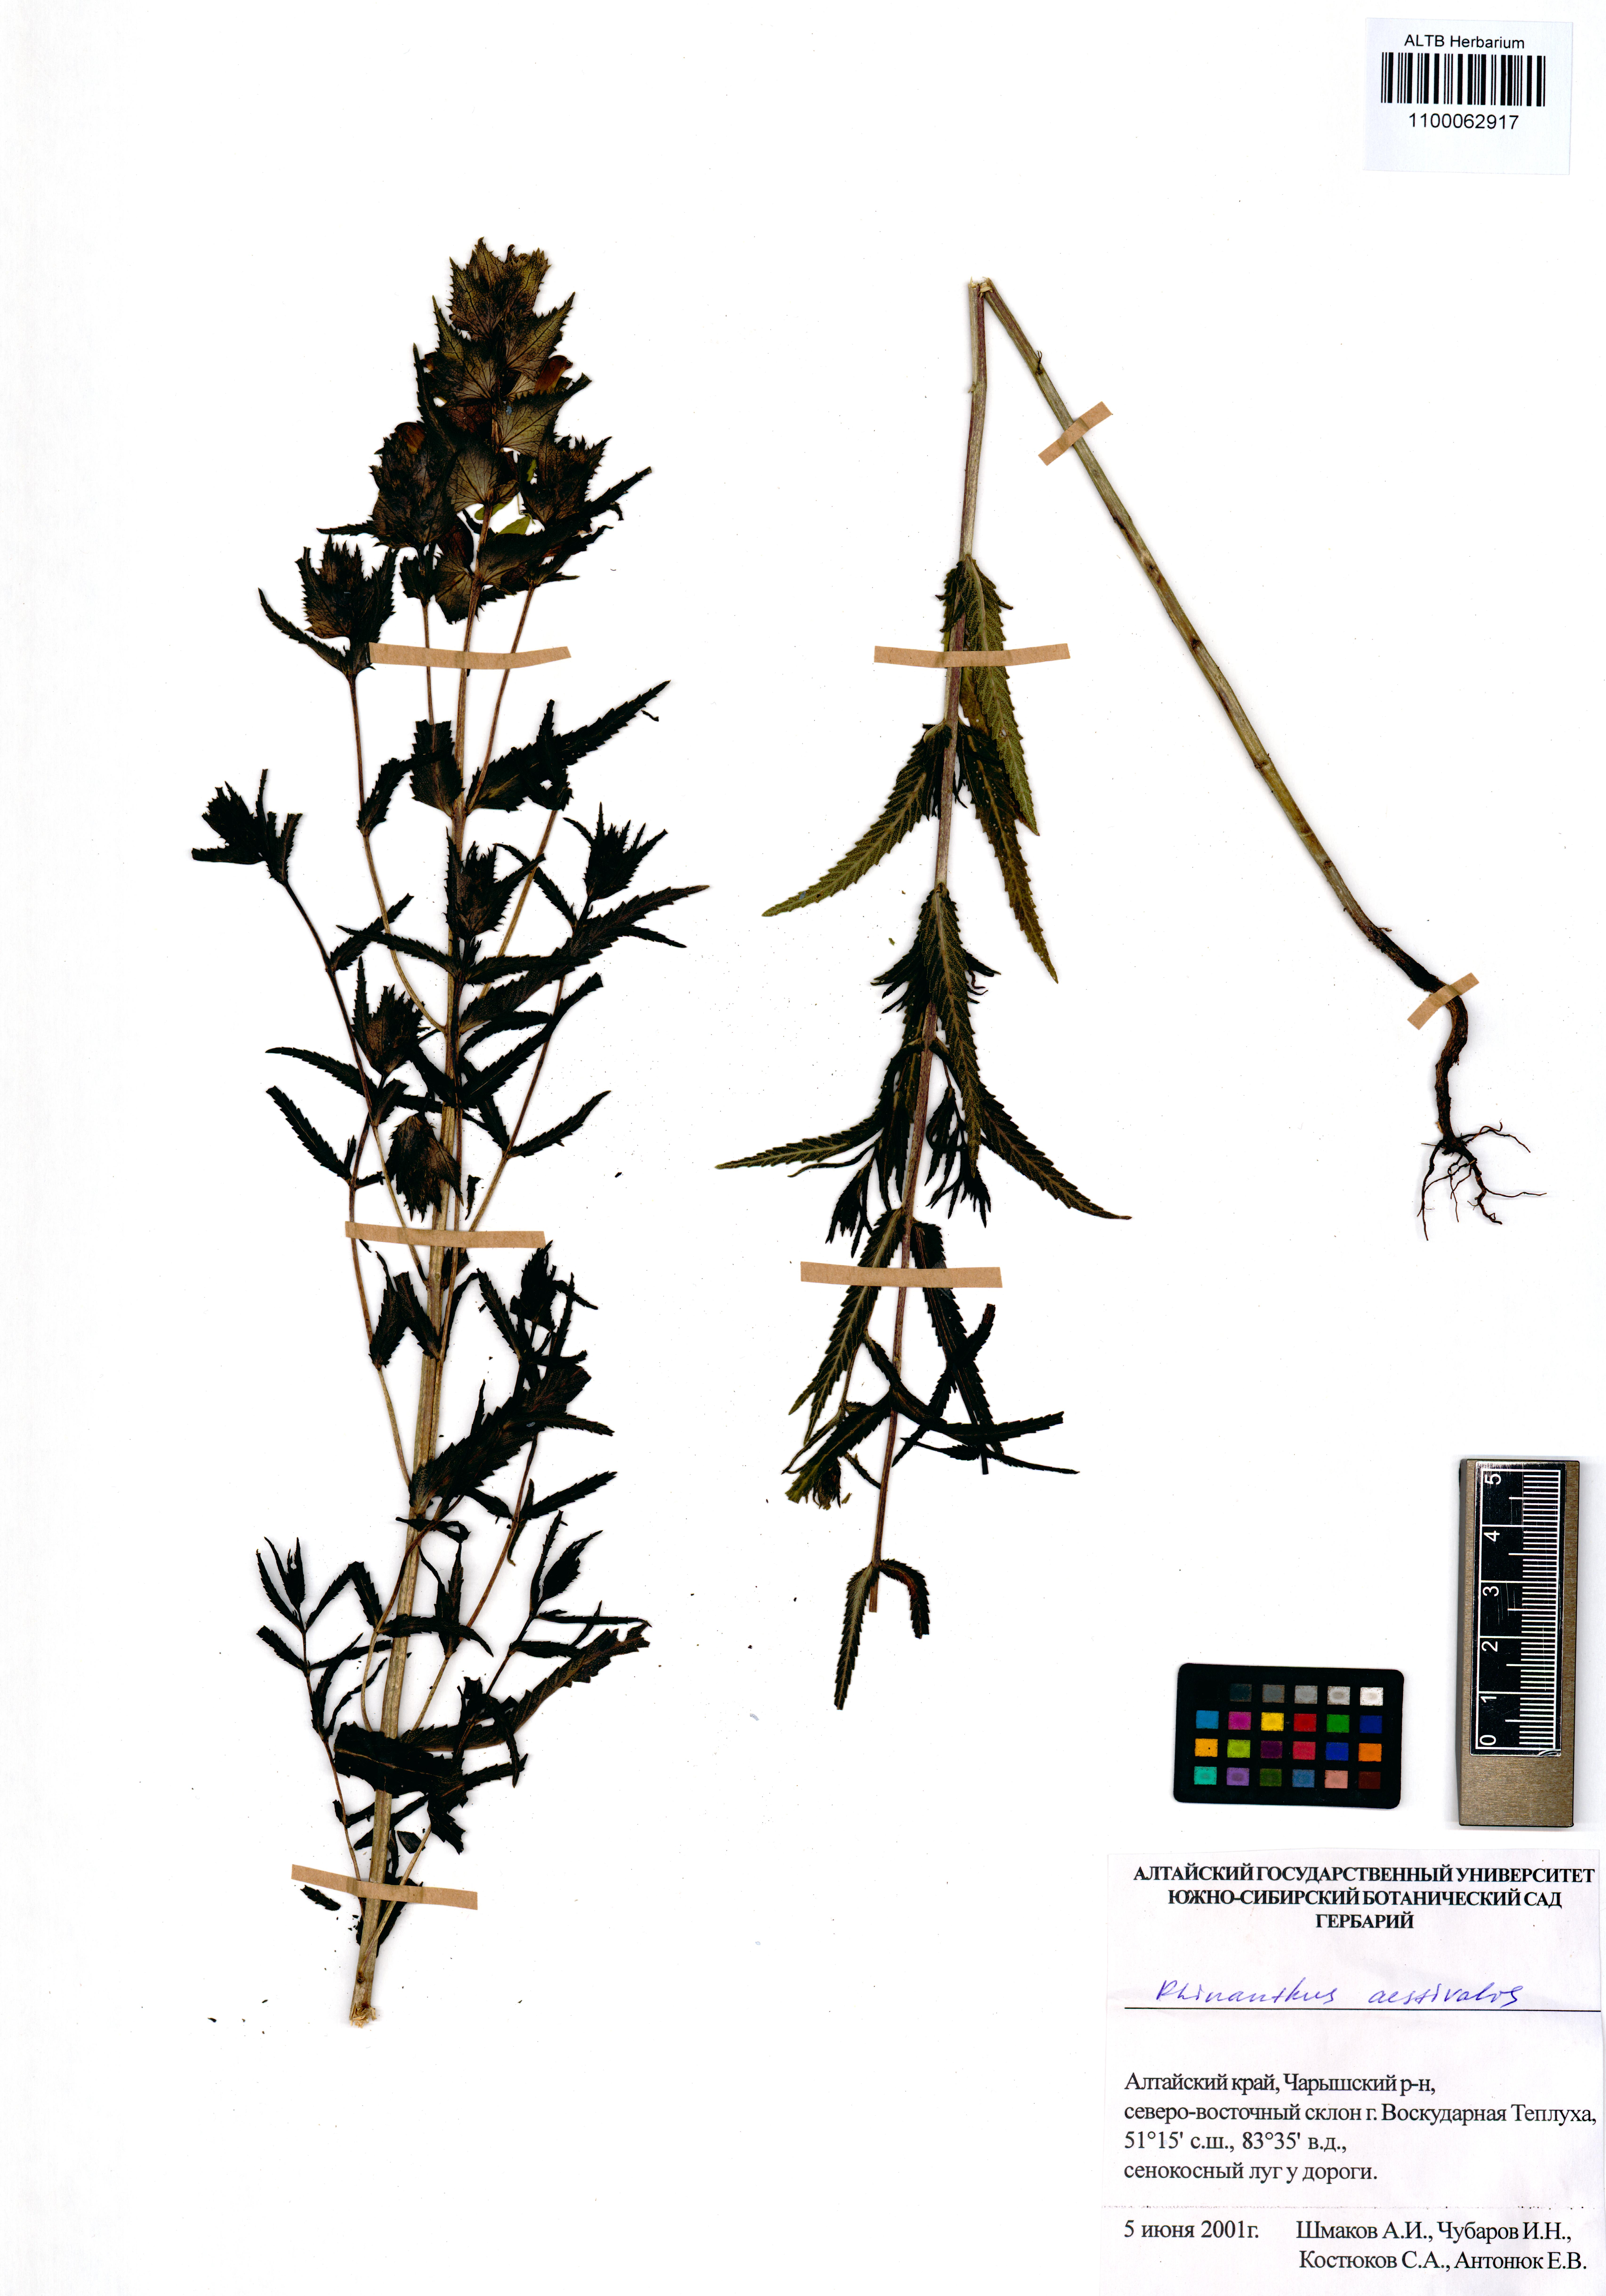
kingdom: Plantae
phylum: Tracheophyta
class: Magnoliopsida
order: Lamiales
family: Orobanchaceae
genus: Rhinanthus
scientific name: Rhinanthus serotinus
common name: Late-flowering yellow rattle
